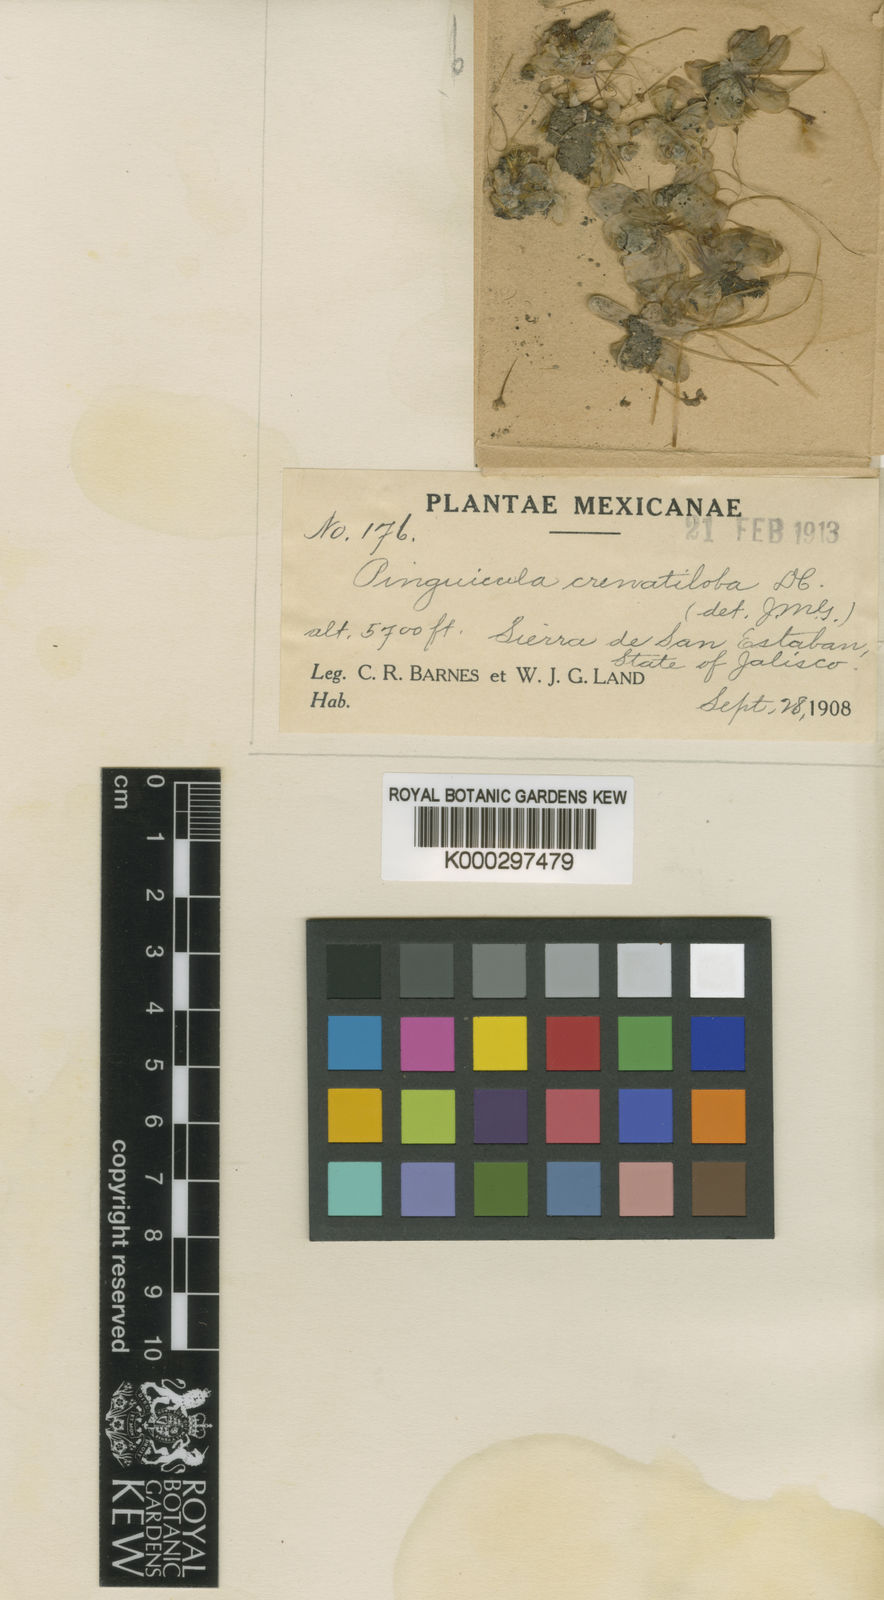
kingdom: Plantae
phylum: Tracheophyta
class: Magnoliopsida
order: Lamiales
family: Lentibulariaceae
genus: Pinguicula
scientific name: Pinguicula crenatiloba
